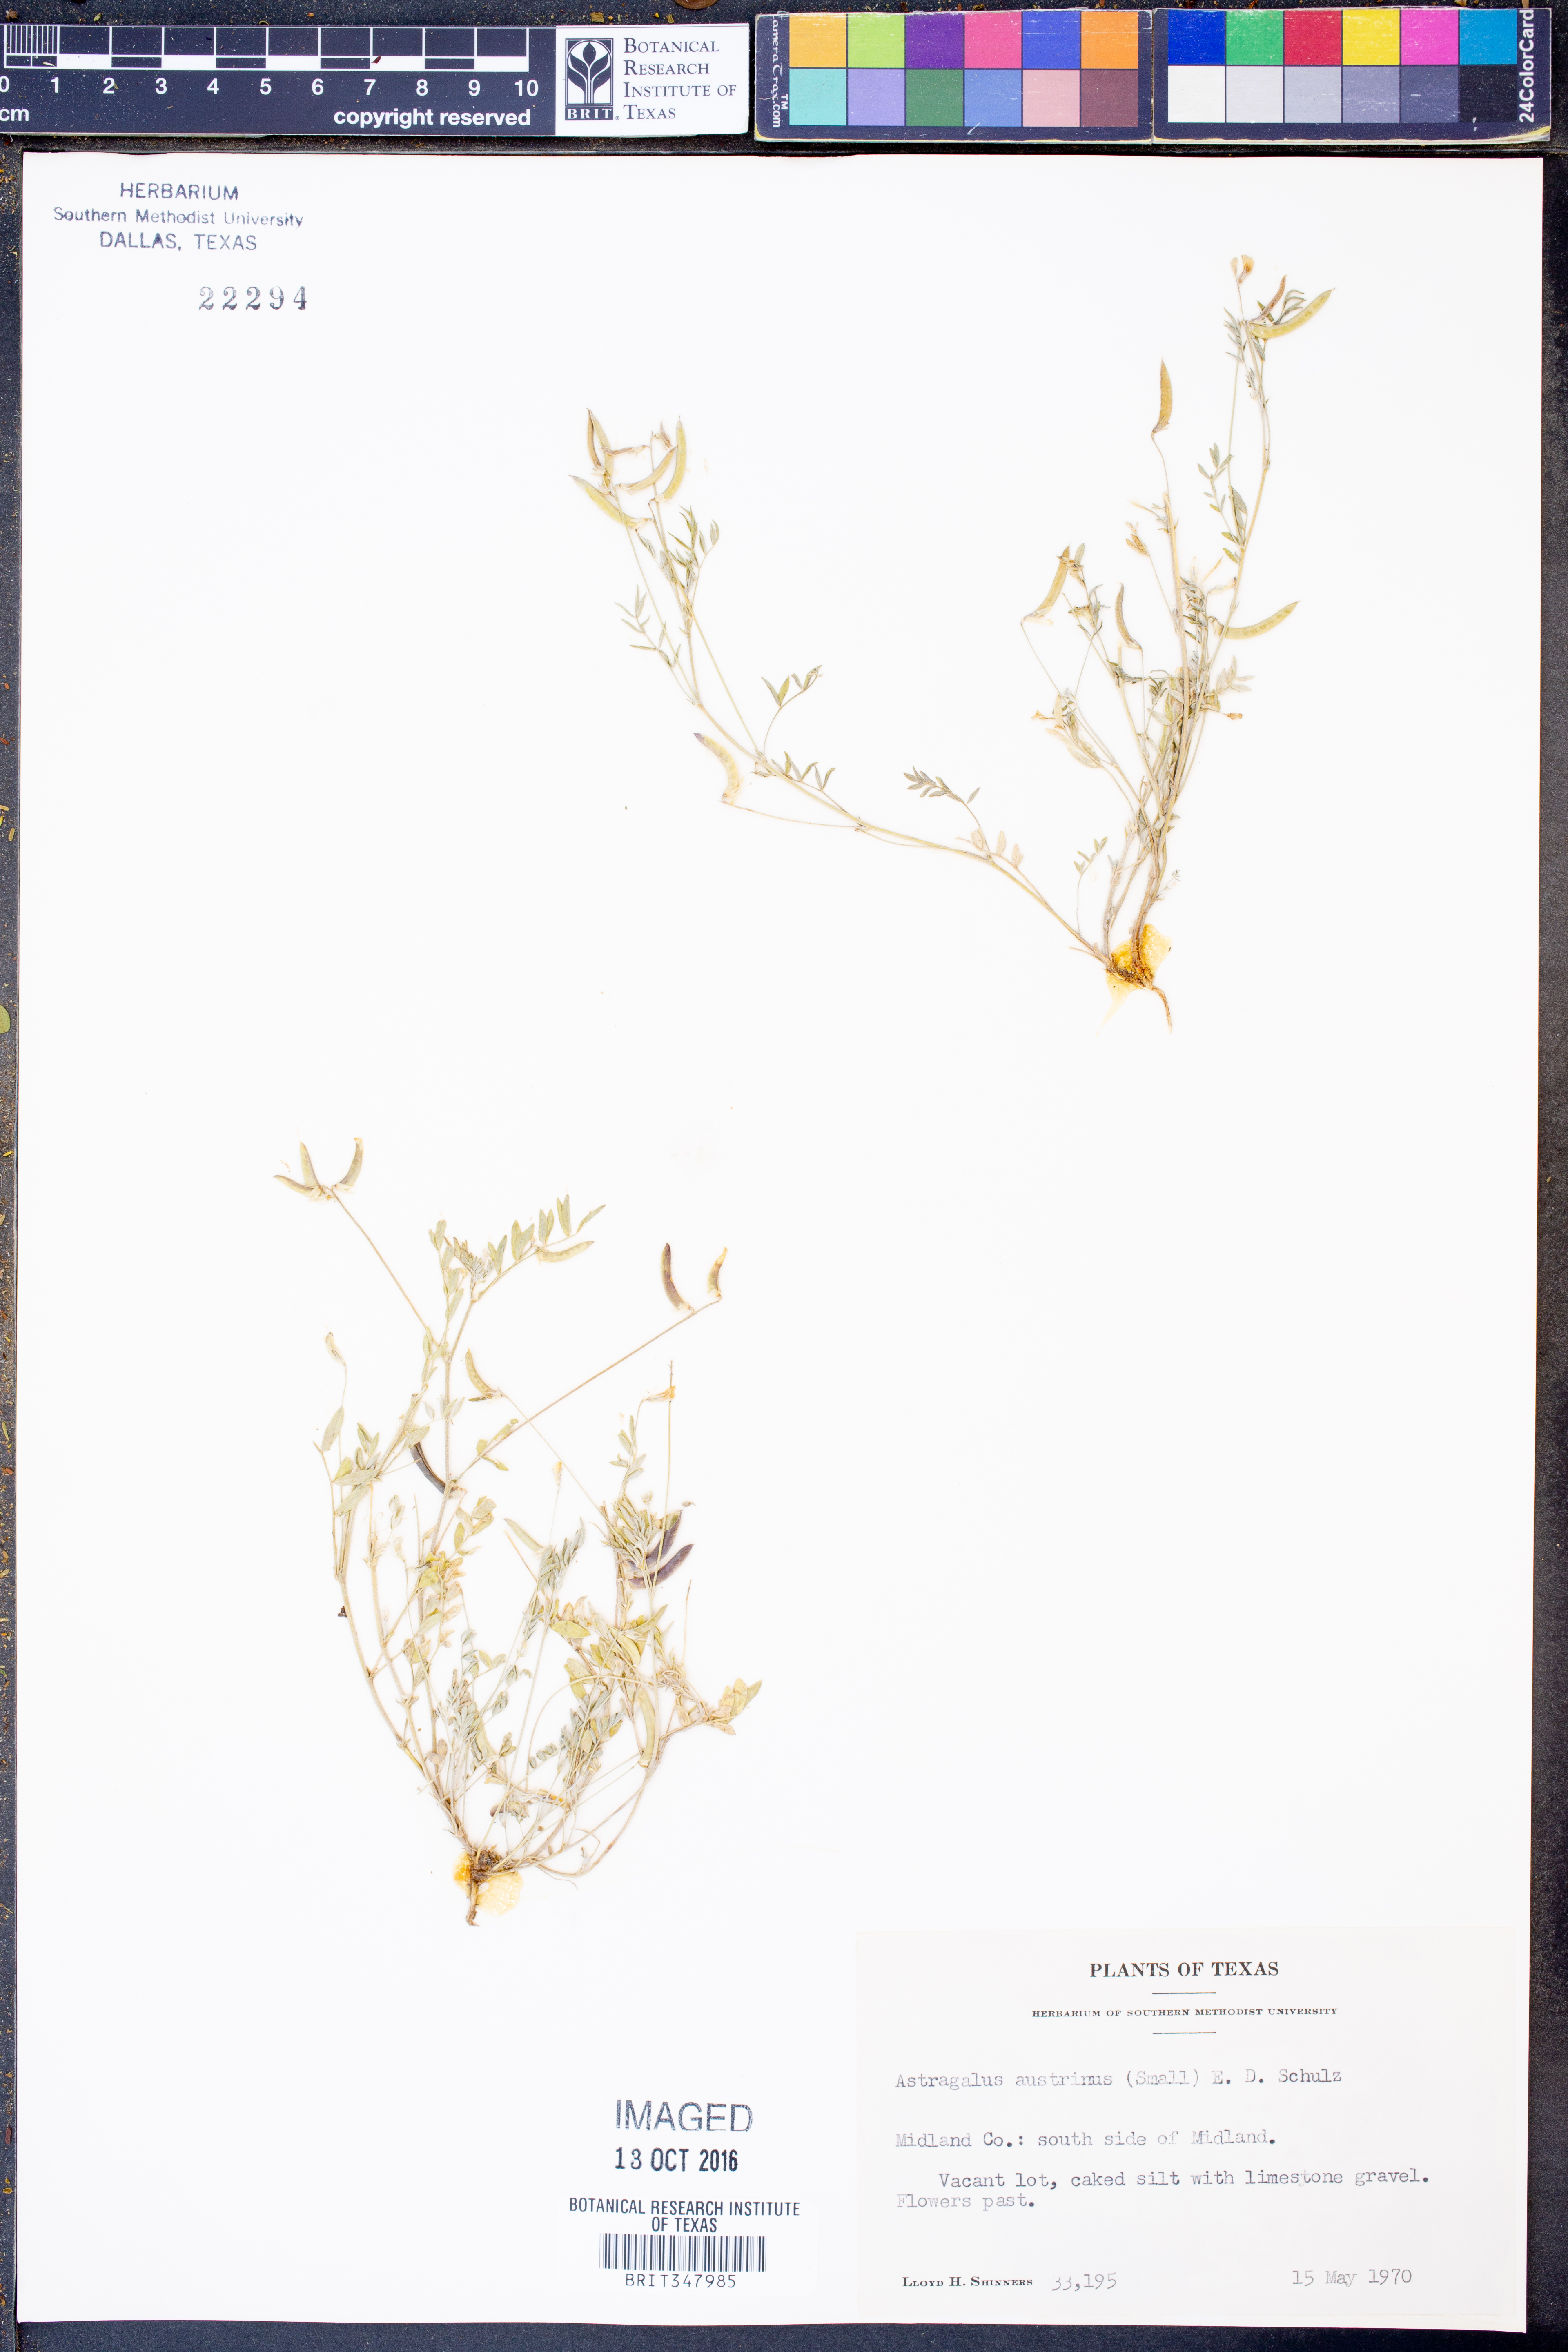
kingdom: Plantae
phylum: Tracheophyta
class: Magnoliopsida
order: Fabales
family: Fabaceae
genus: Astragalus
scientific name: Astragalus nuttallianus
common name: Smallflowered milkvetch
